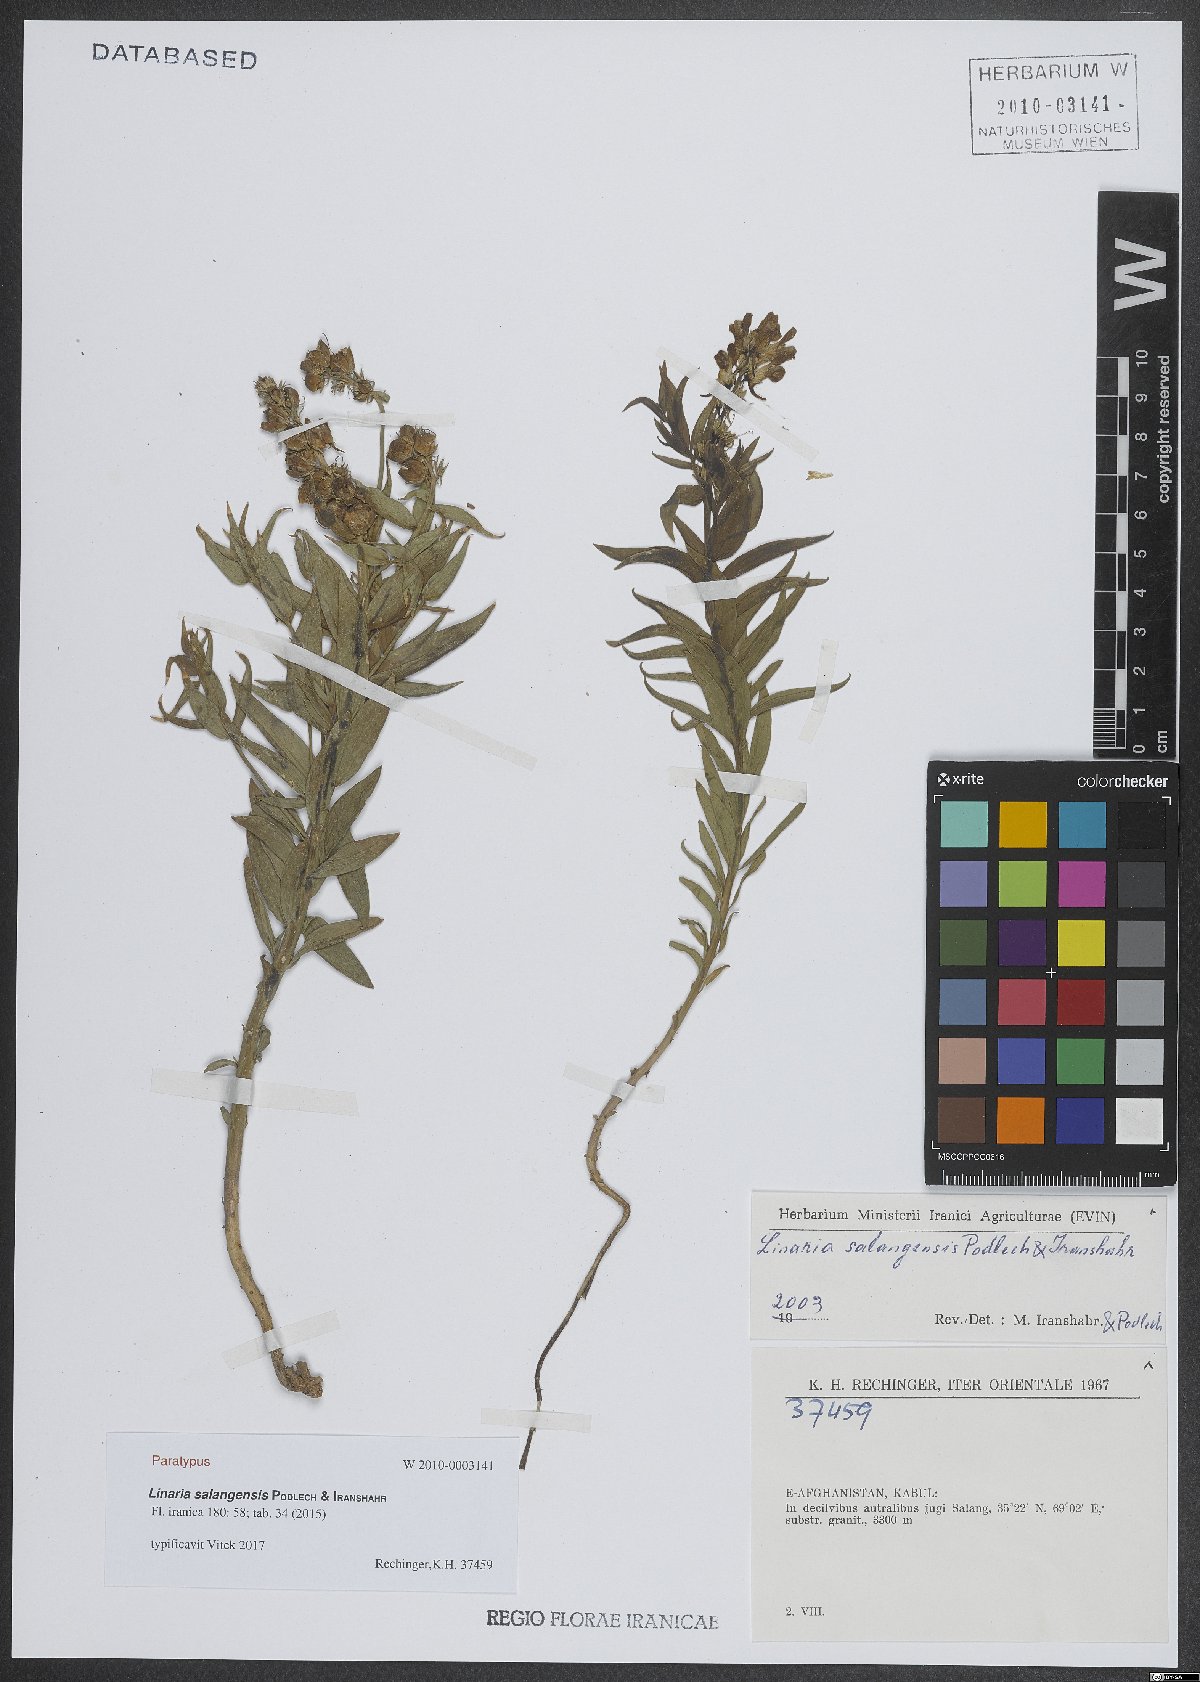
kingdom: Plantae
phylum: Tracheophyta
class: Magnoliopsida
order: Lamiales
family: Plantaginaceae
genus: Linaria
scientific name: Linaria salangensis
